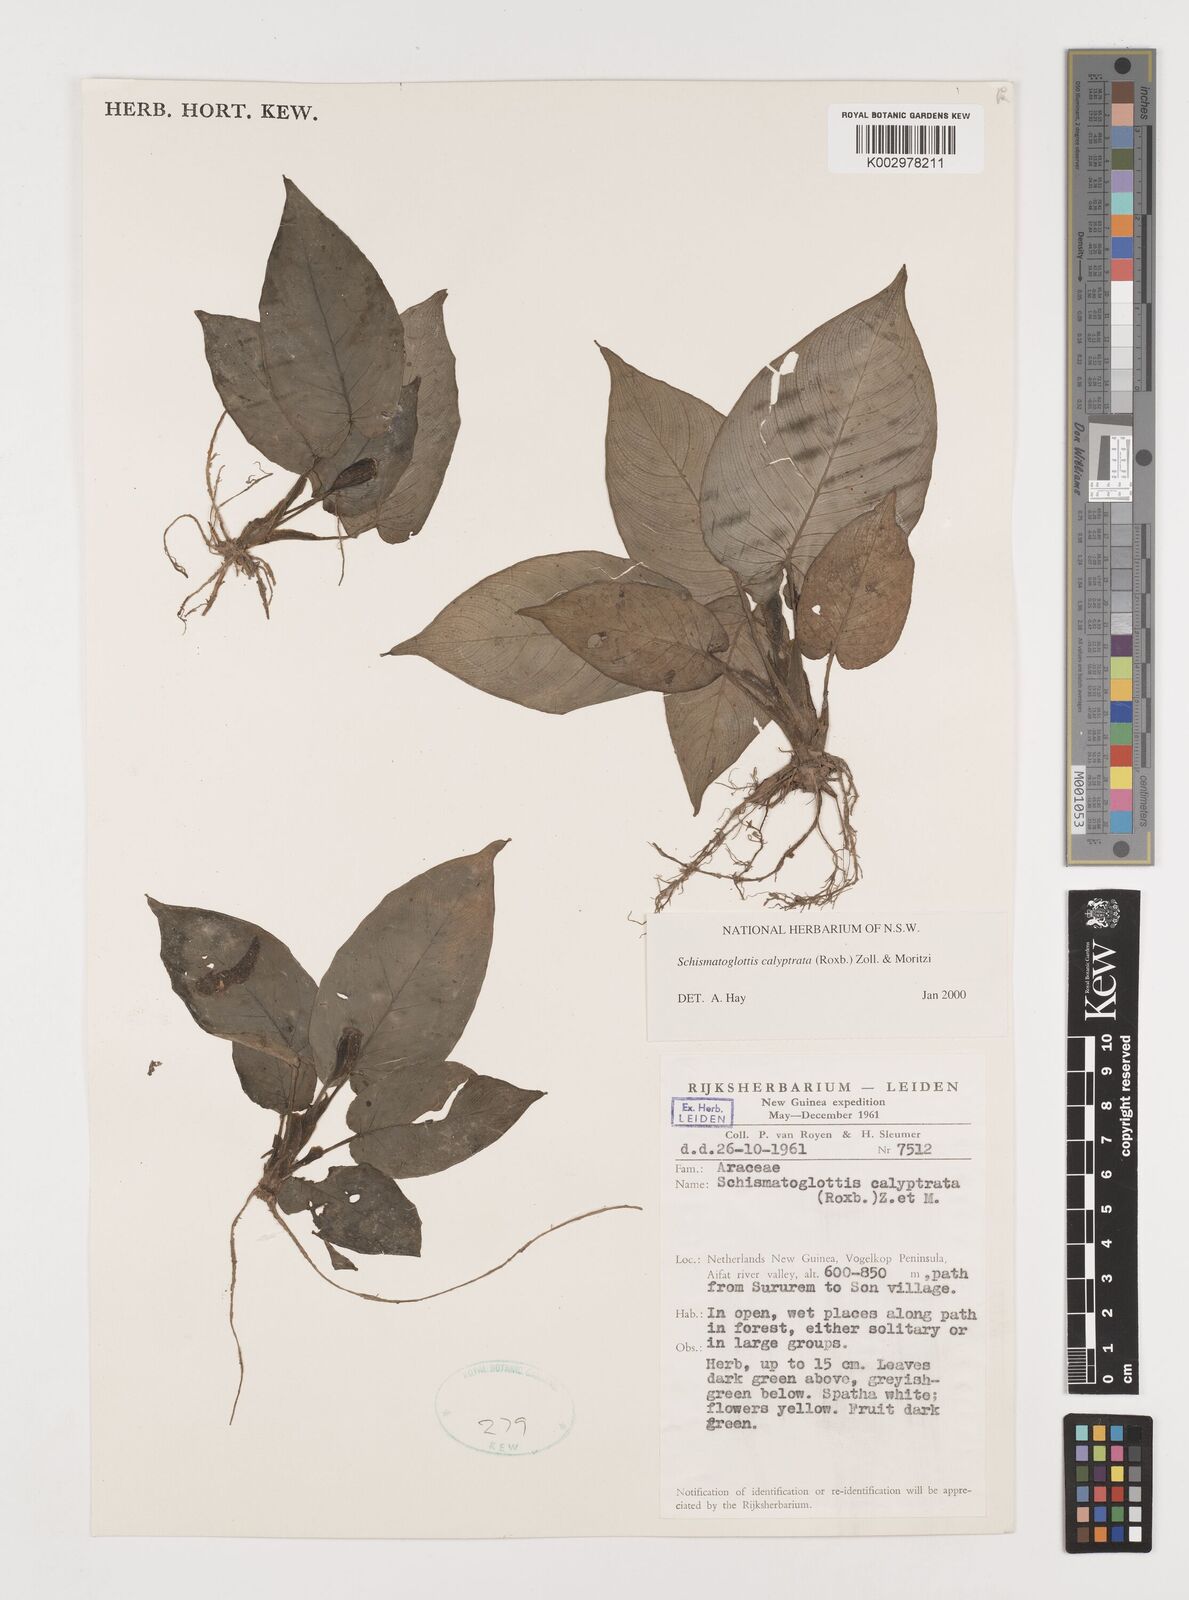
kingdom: Plantae
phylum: Tracheophyta
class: Liliopsida
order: Alismatales
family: Araceae
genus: Schismatoglottis
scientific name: Schismatoglottis calyptrata
